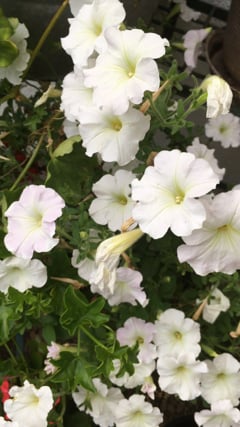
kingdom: Animalia
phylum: Arthropoda
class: Insecta
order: Lepidoptera
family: Sphingidae
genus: Hyles
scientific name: Hyles livornica
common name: Striped hawk-moth
